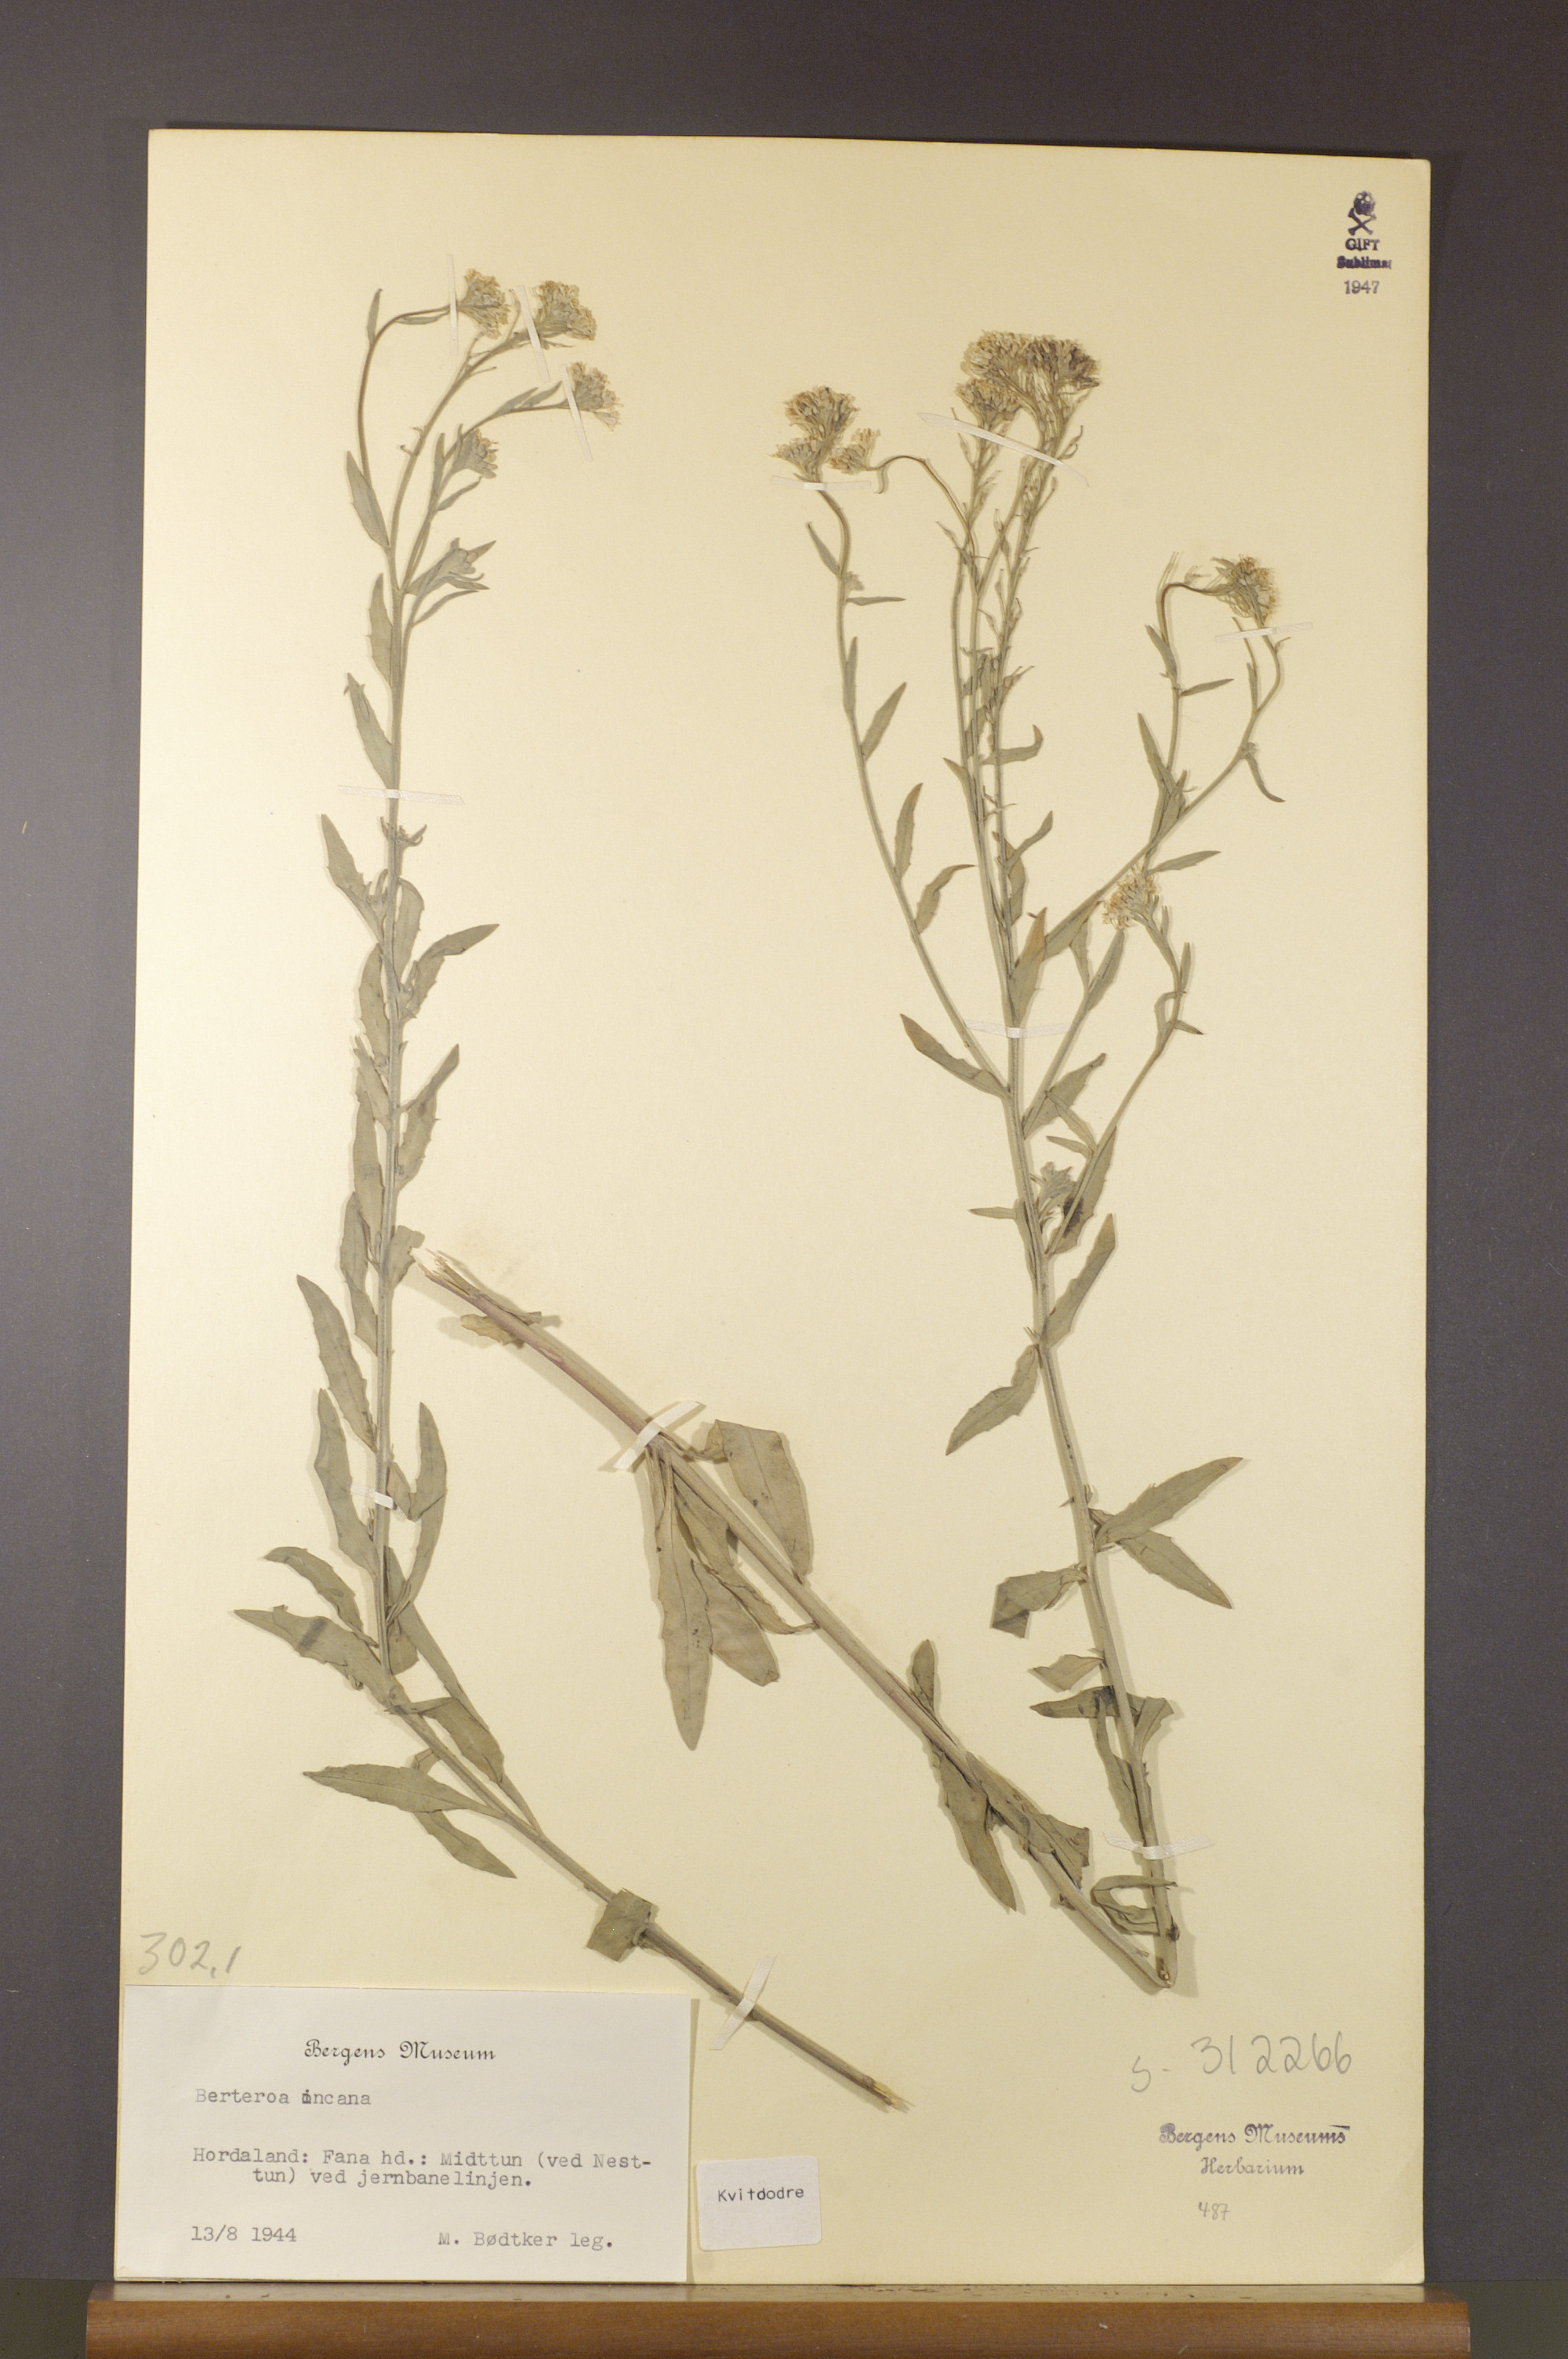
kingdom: Plantae
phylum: Tracheophyta
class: Magnoliopsida
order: Brassicales
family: Brassicaceae
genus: Berteroa
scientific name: Berteroa incana
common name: Hoary alison
